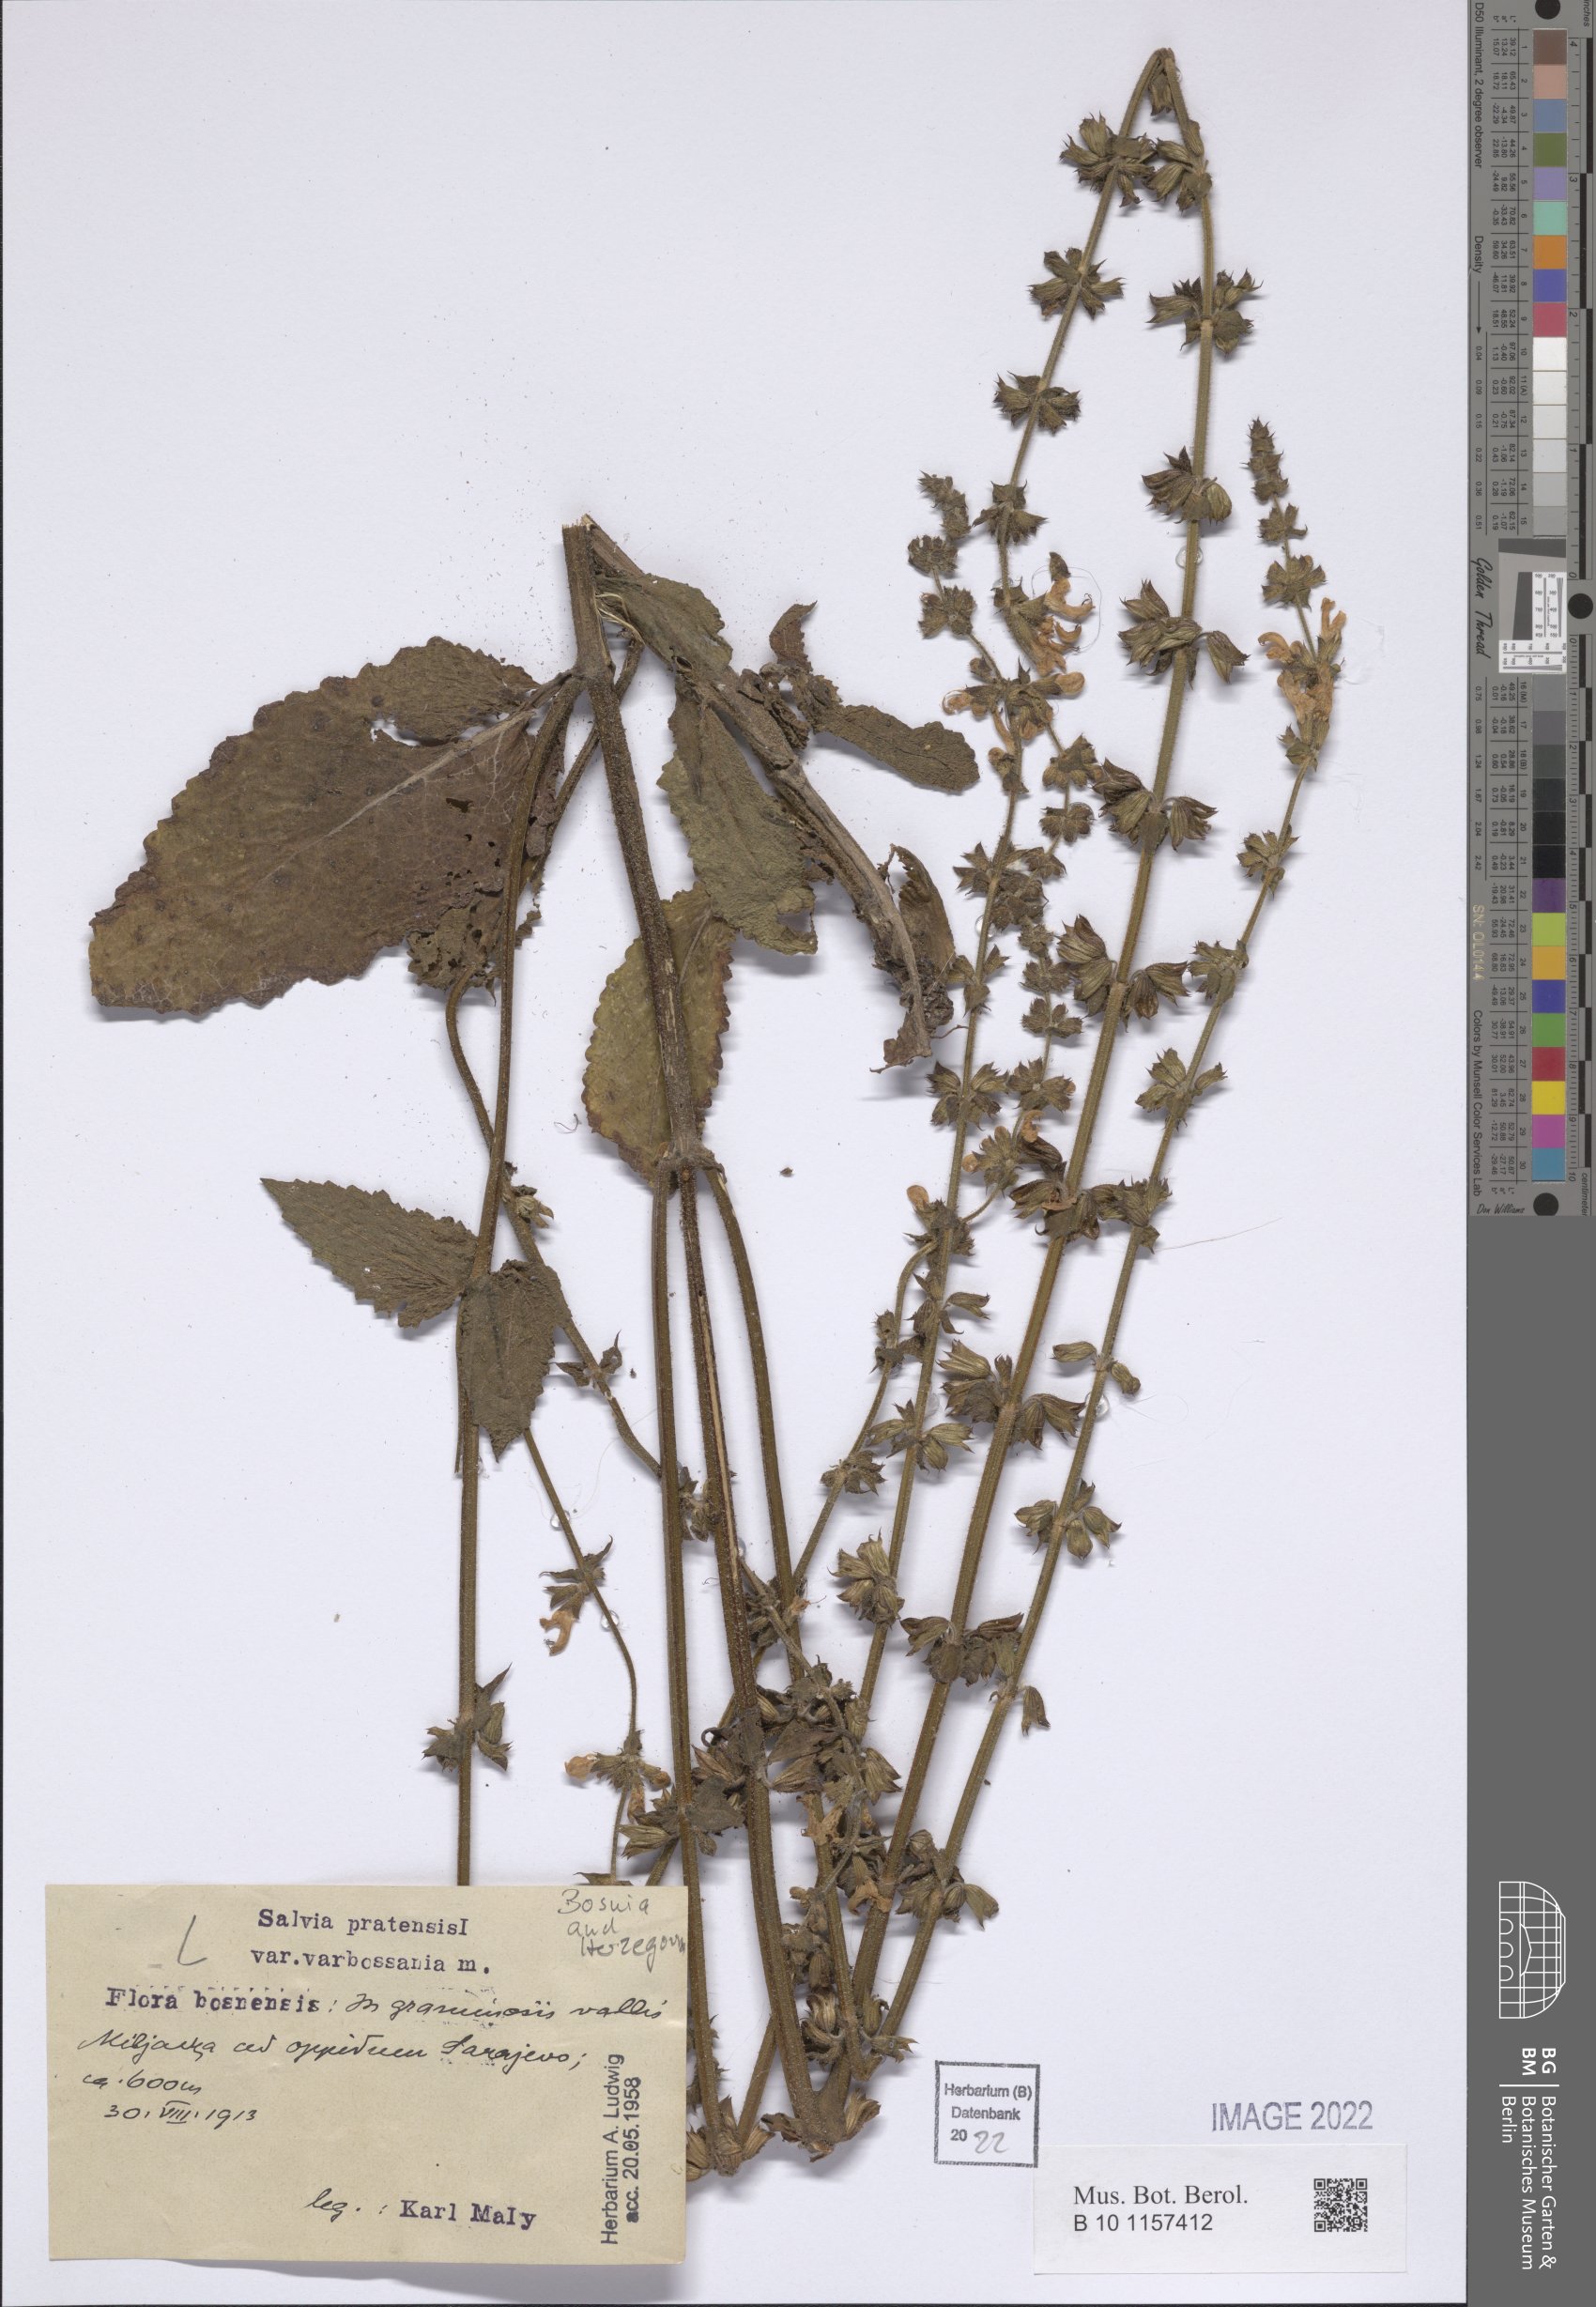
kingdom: Plantae
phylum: Tracheophyta
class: Magnoliopsida
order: Lamiales
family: Lamiaceae
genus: Salvia
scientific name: Salvia pratensis
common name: Meadow sage
